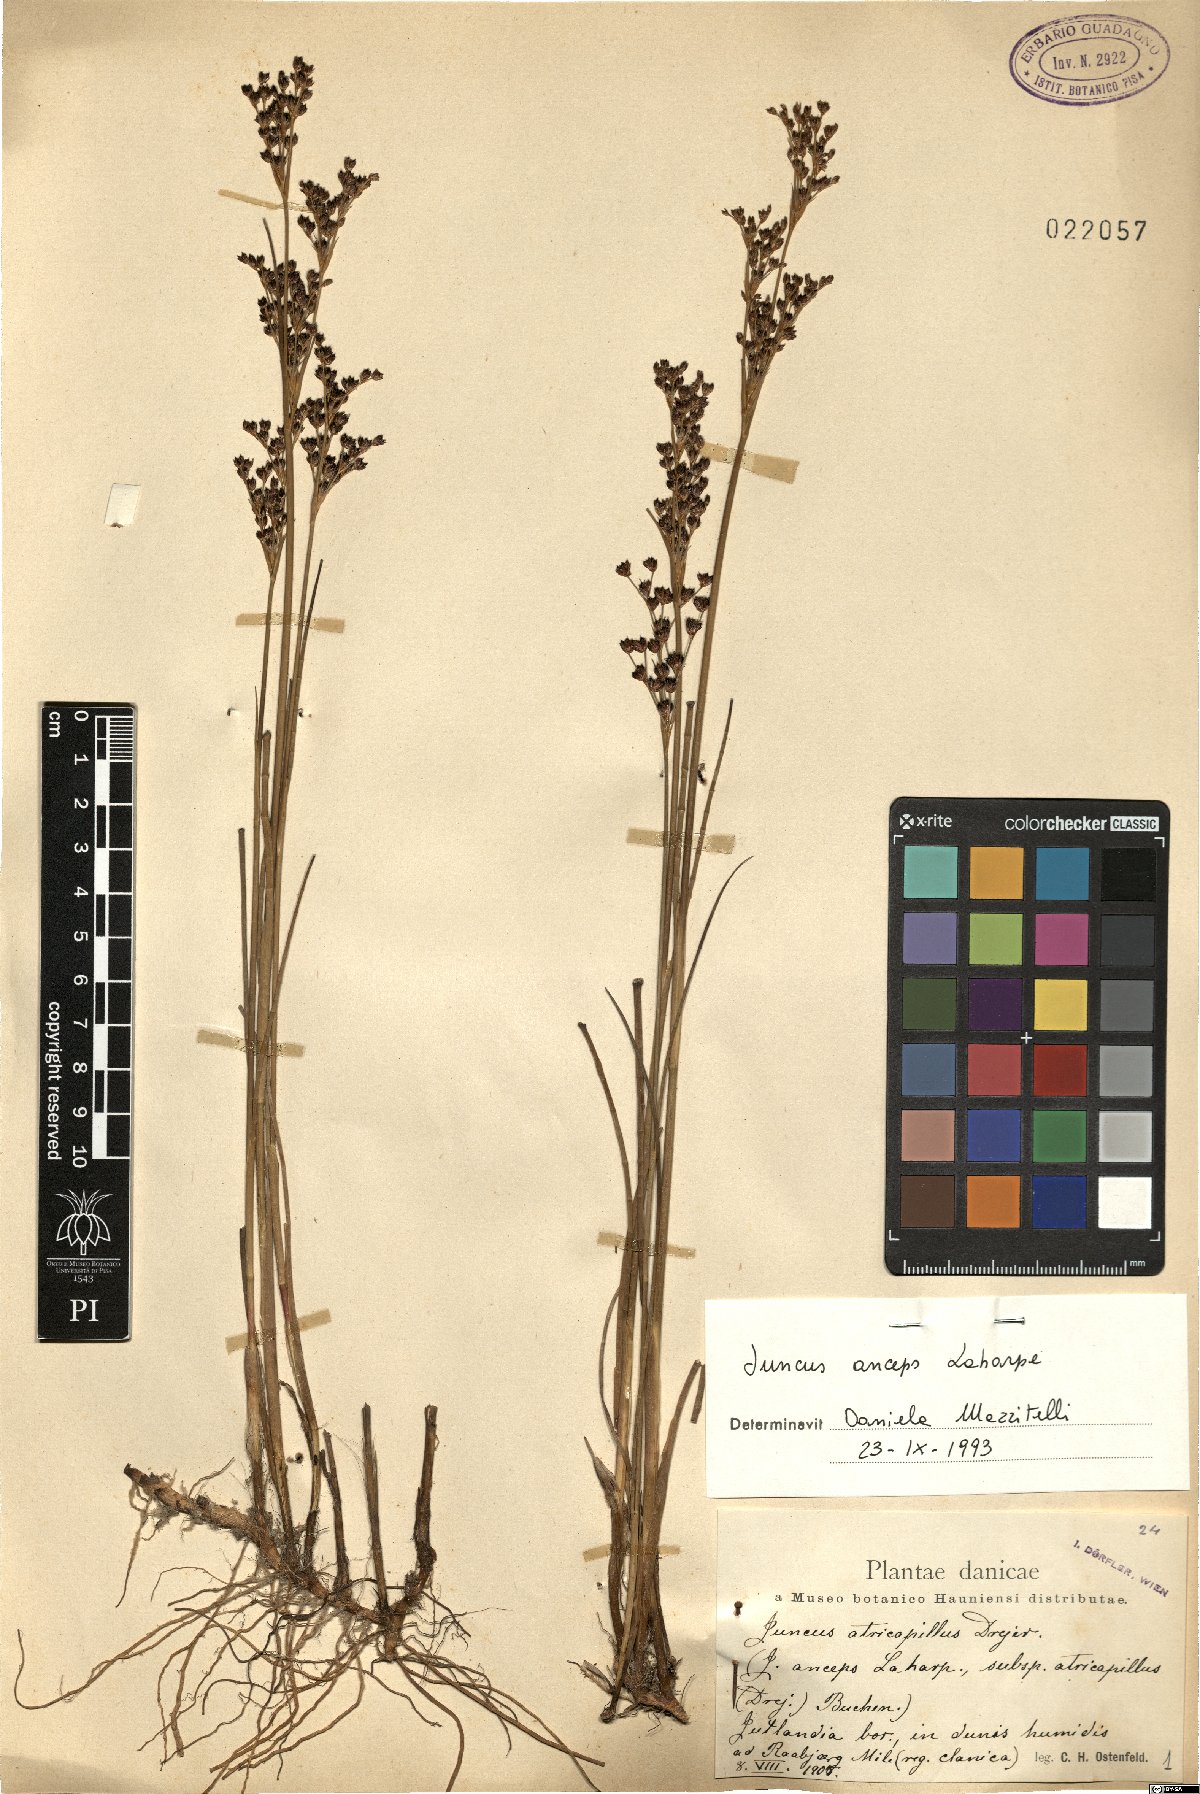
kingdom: Plantae
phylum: Tracheophyta
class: Liliopsida
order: Poales
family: Juncaceae
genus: Juncus
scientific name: Juncus anceps
